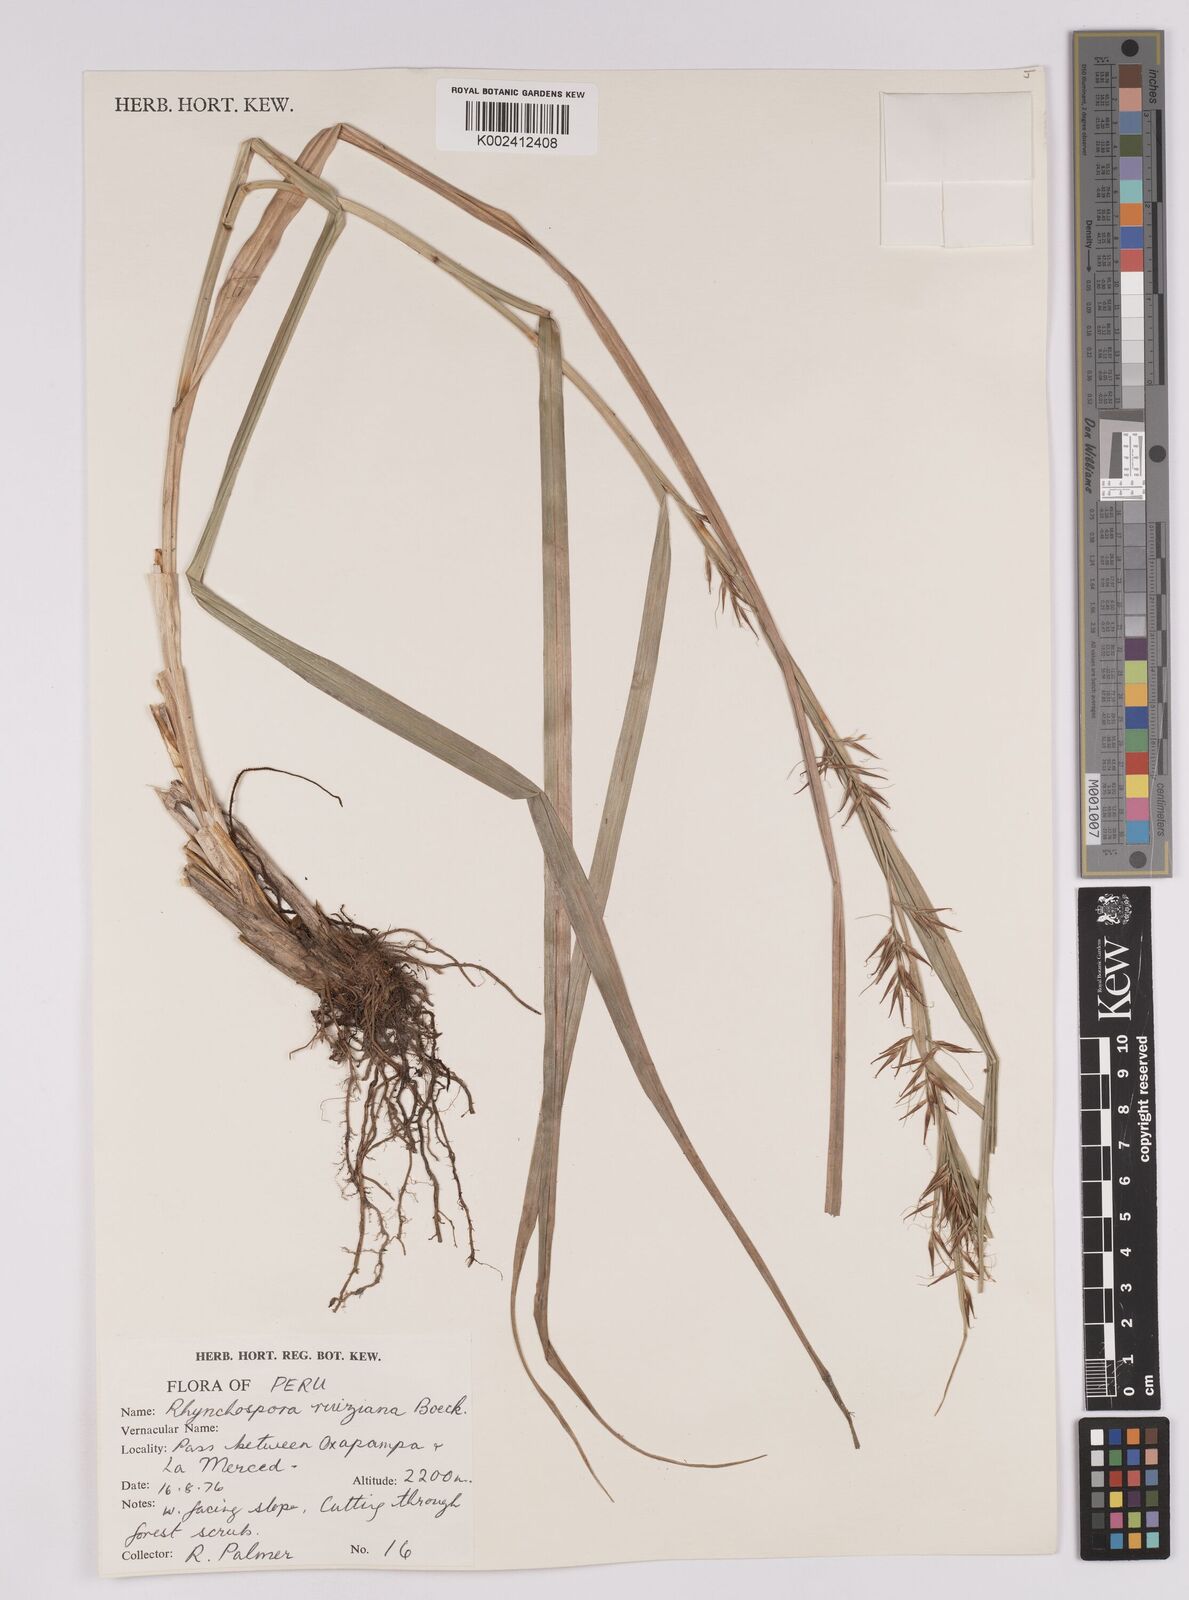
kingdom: Plantae
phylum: Tracheophyta
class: Liliopsida
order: Poales
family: Cyperaceae
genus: Rhynchospora
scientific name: Rhynchospora ruiziana
